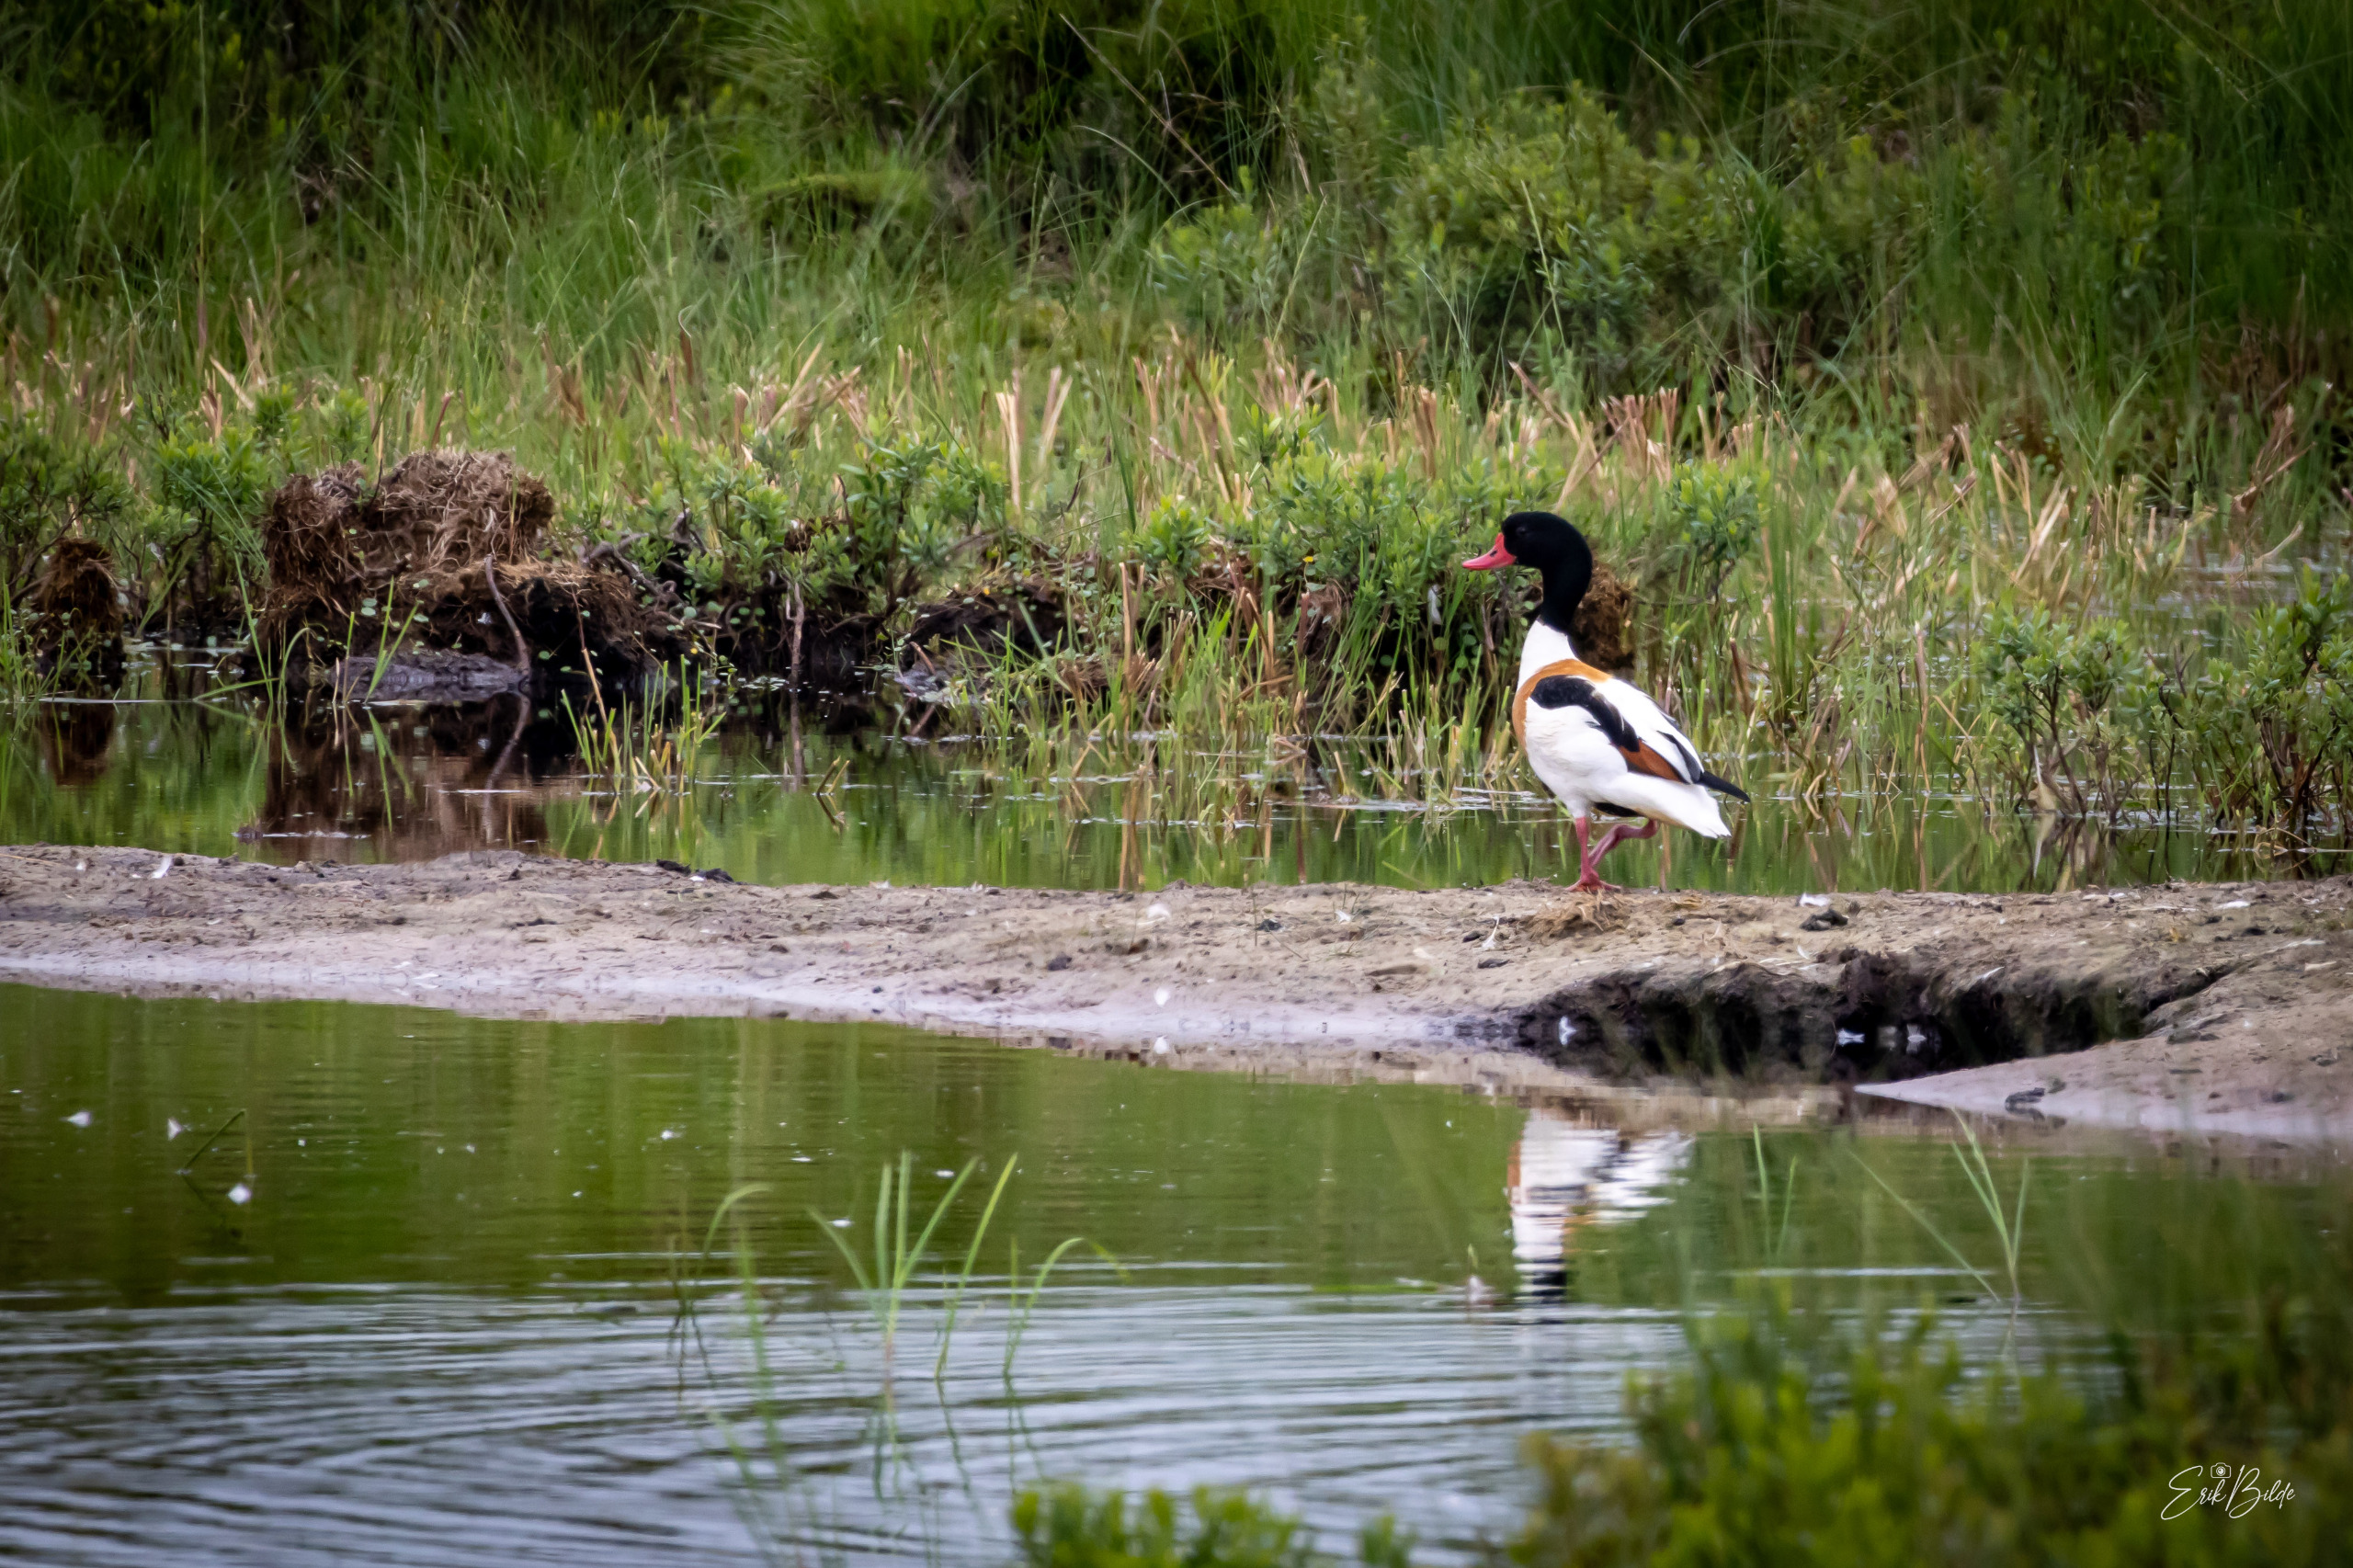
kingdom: Animalia
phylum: Chordata
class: Aves
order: Anseriformes
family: Anatidae
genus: Tadorna
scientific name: Tadorna tadorna
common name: Gravand
